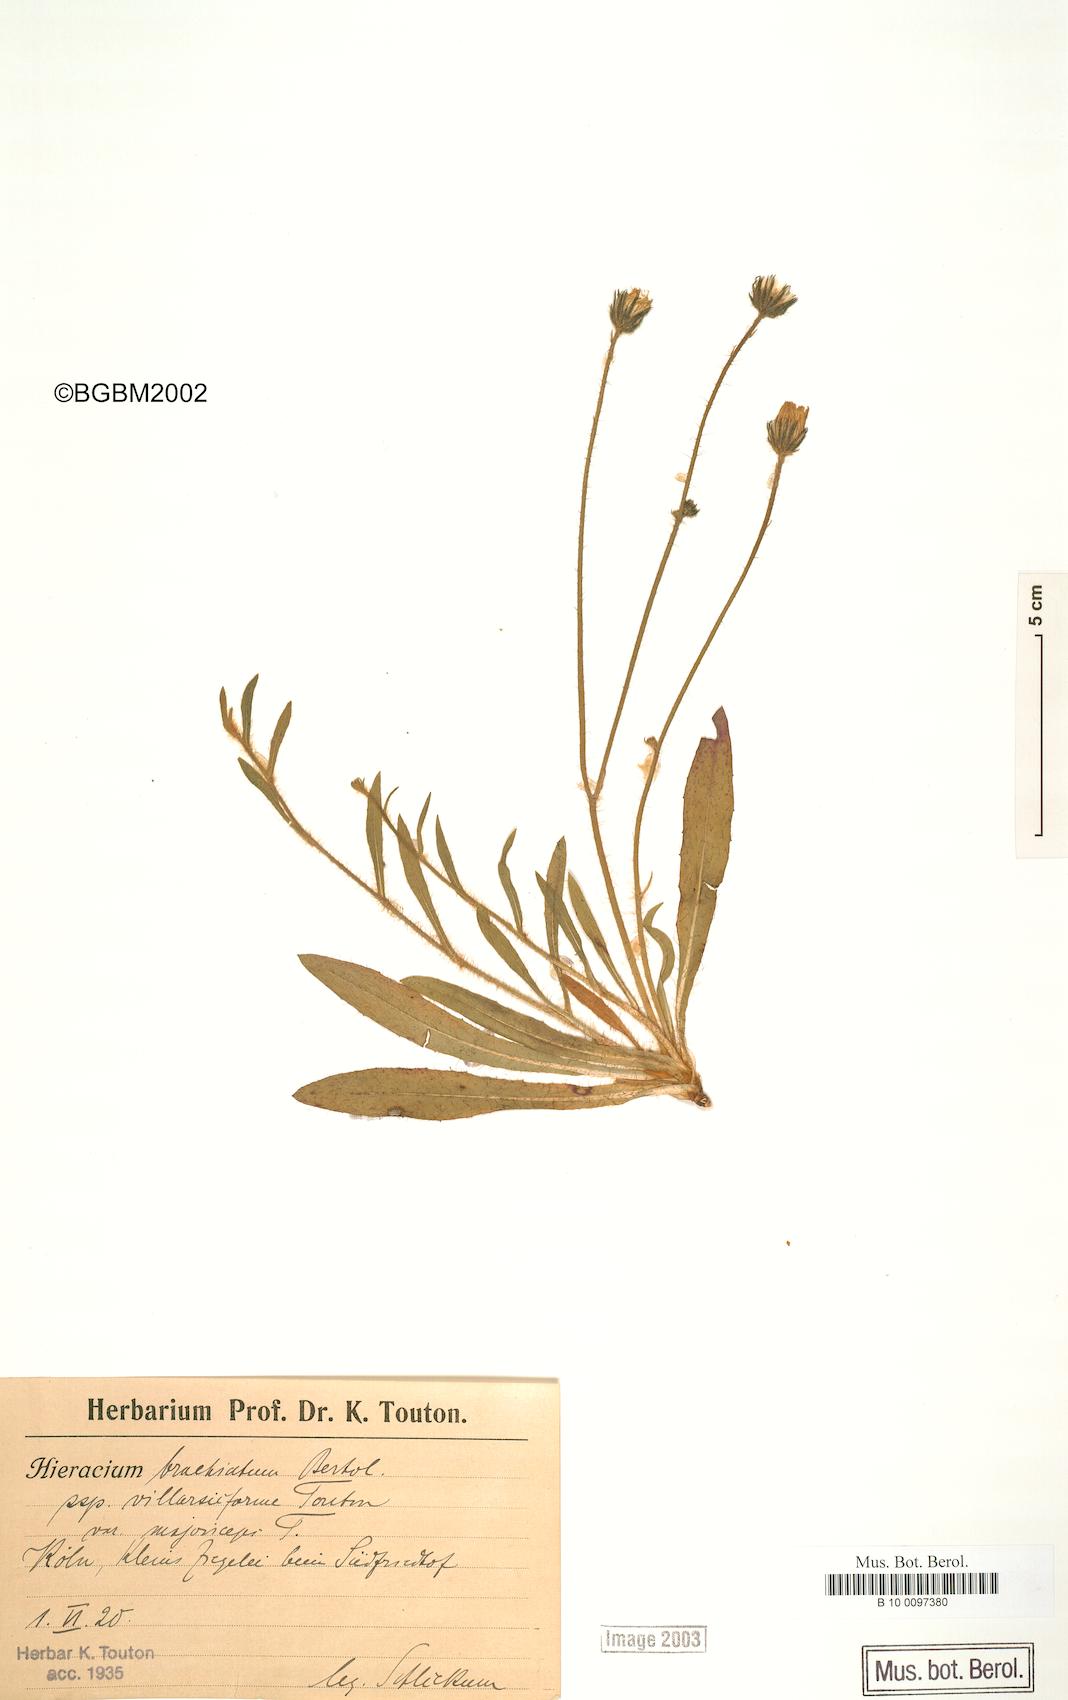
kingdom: Plantae
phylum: Tracheophyta
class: Magnoliopsida
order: Asterales
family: Asteraceae
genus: Pilosella
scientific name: Pilosella acutifolia
